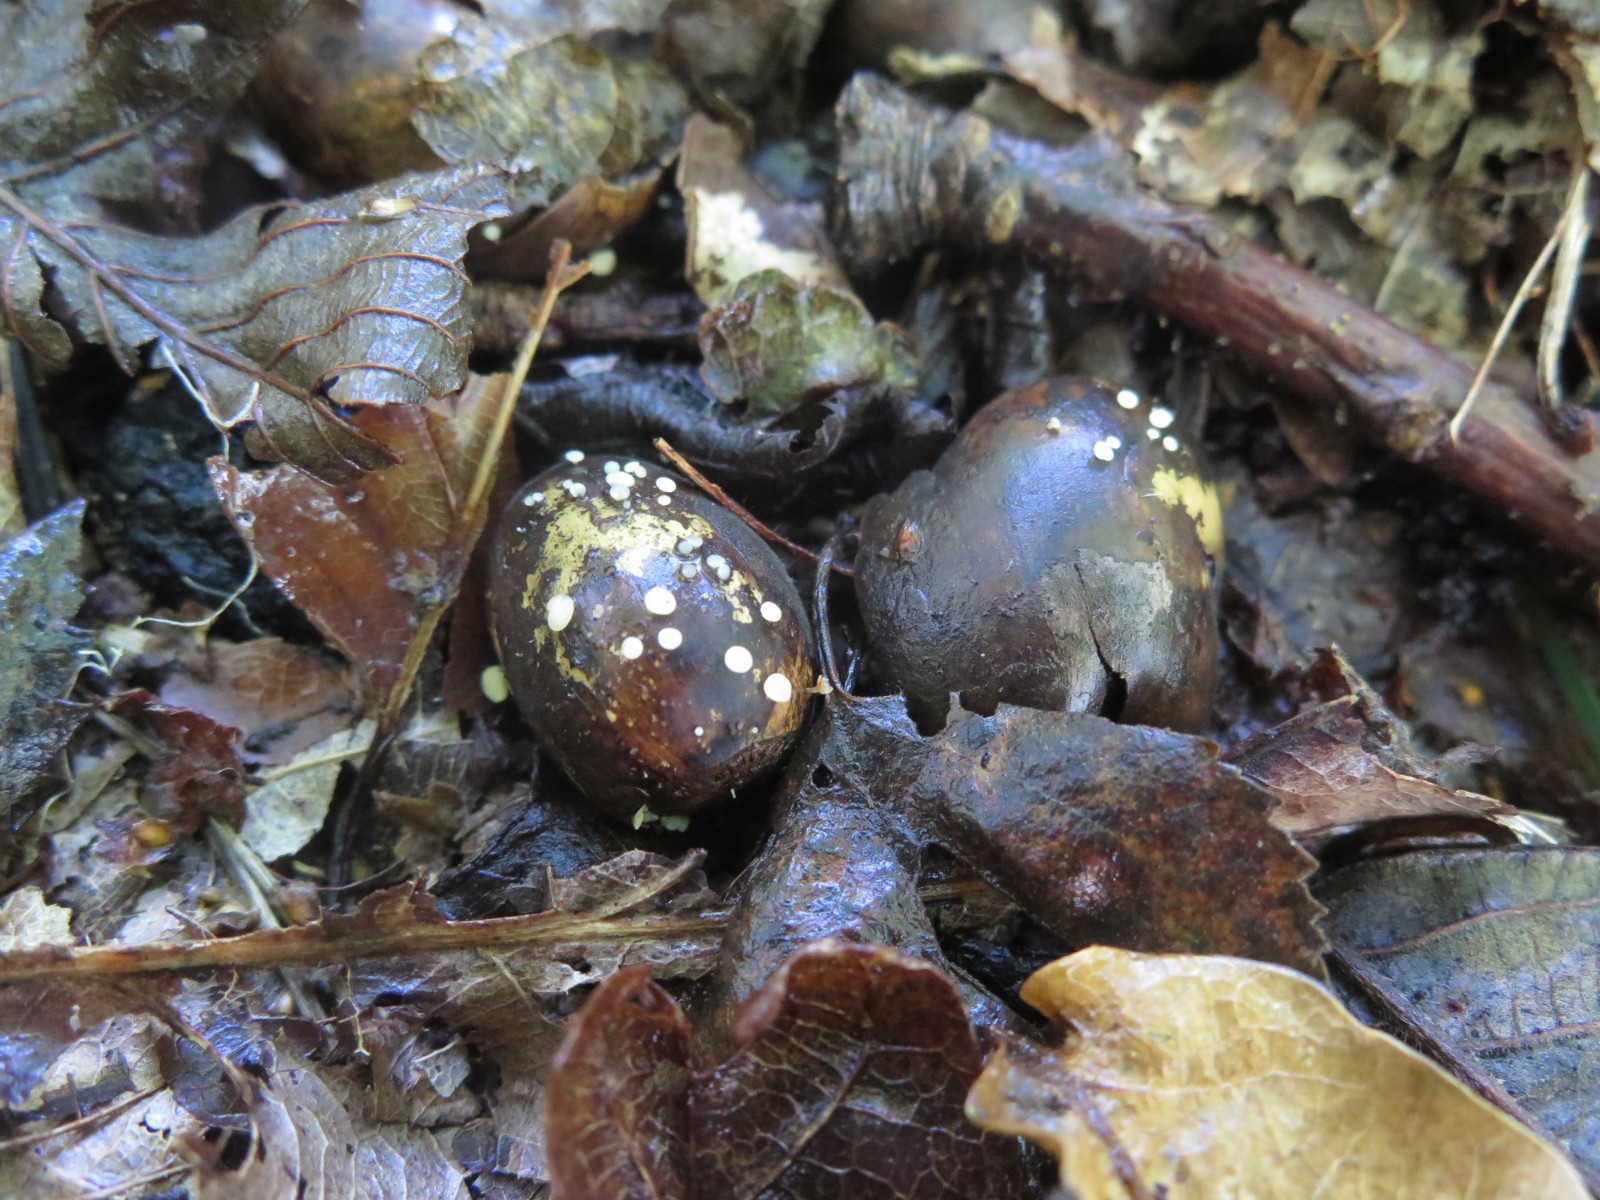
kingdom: Fungi
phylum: Ascomycota
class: Leotiomycetes
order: Helotiales
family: Helotiaceae
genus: Hymenoscyphus
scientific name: Hymenoscyphus
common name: stilkskive
